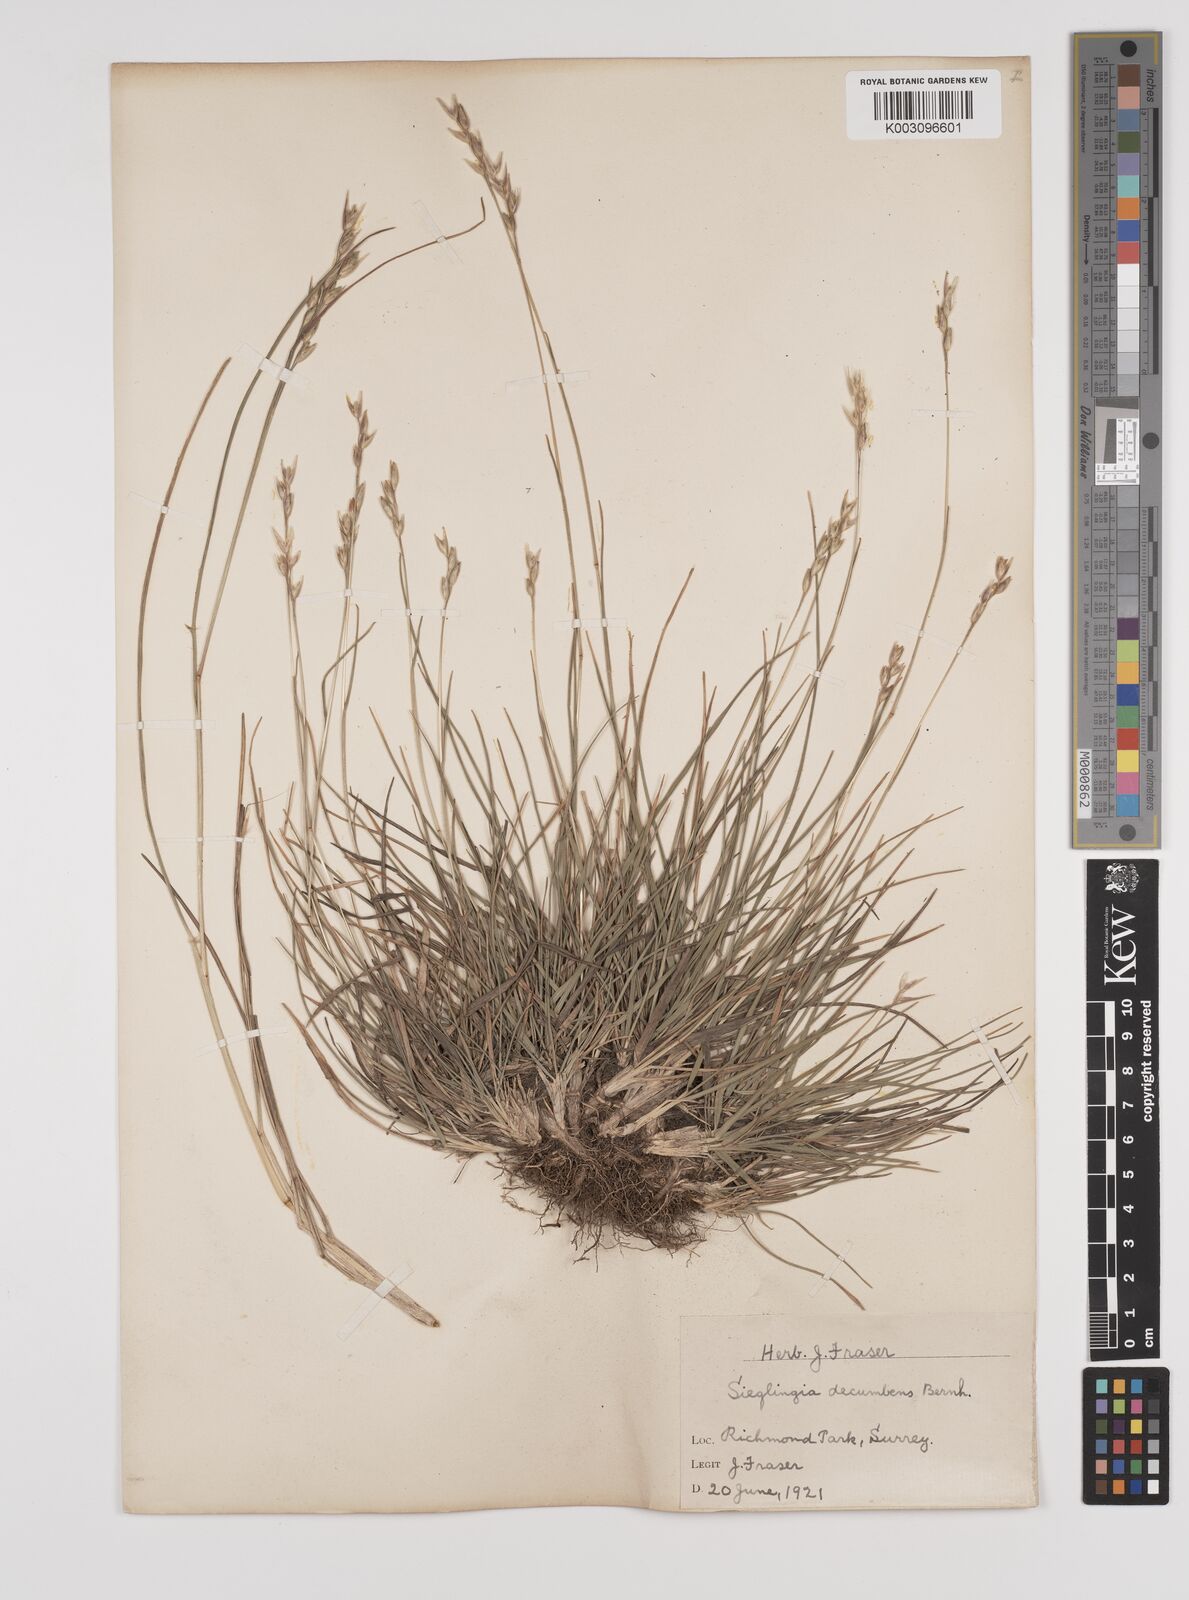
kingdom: Plantae
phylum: Tracheophyta
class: Liliopsida
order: Poales
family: Poaceae
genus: Danthonia
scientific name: Danthonia decumbens
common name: Common heathgrass
